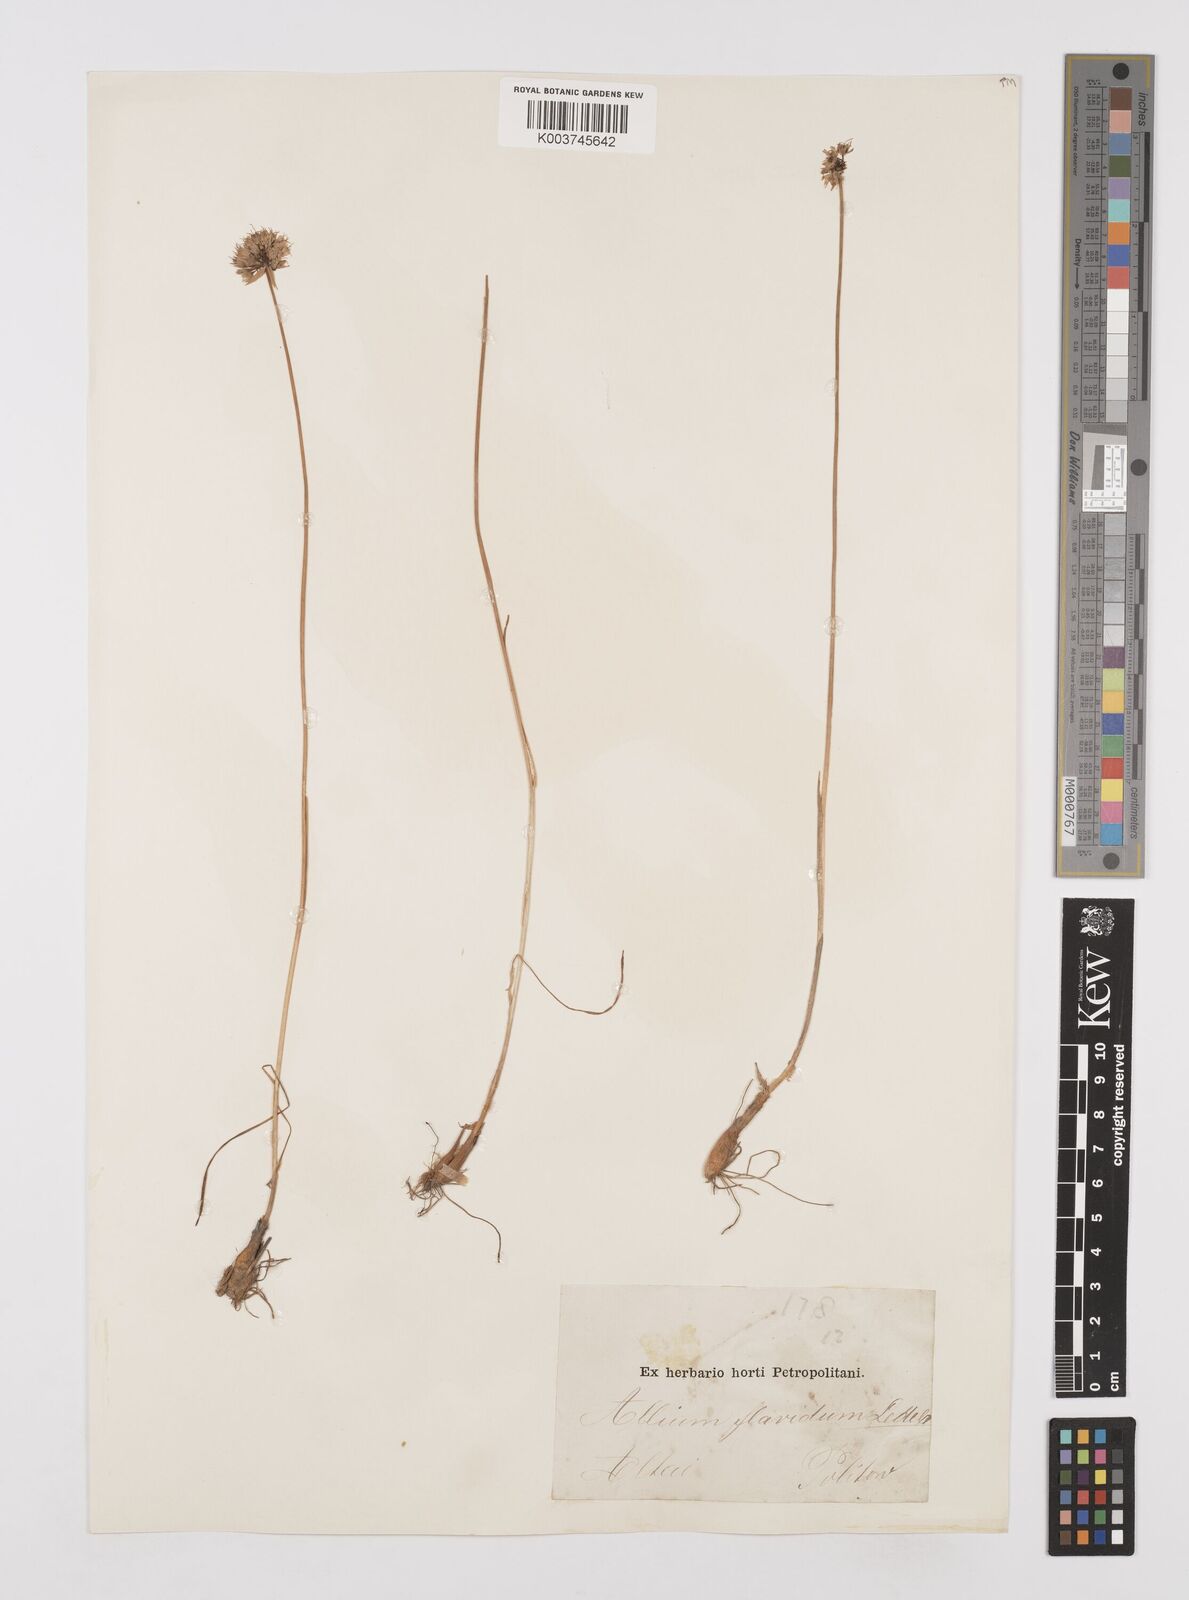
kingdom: Plantae
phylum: Tracheophyta
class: Liliopsida
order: Asparagales
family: Amaryllidaceae
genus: Allium
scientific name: Allium textile
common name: Prairie onion
